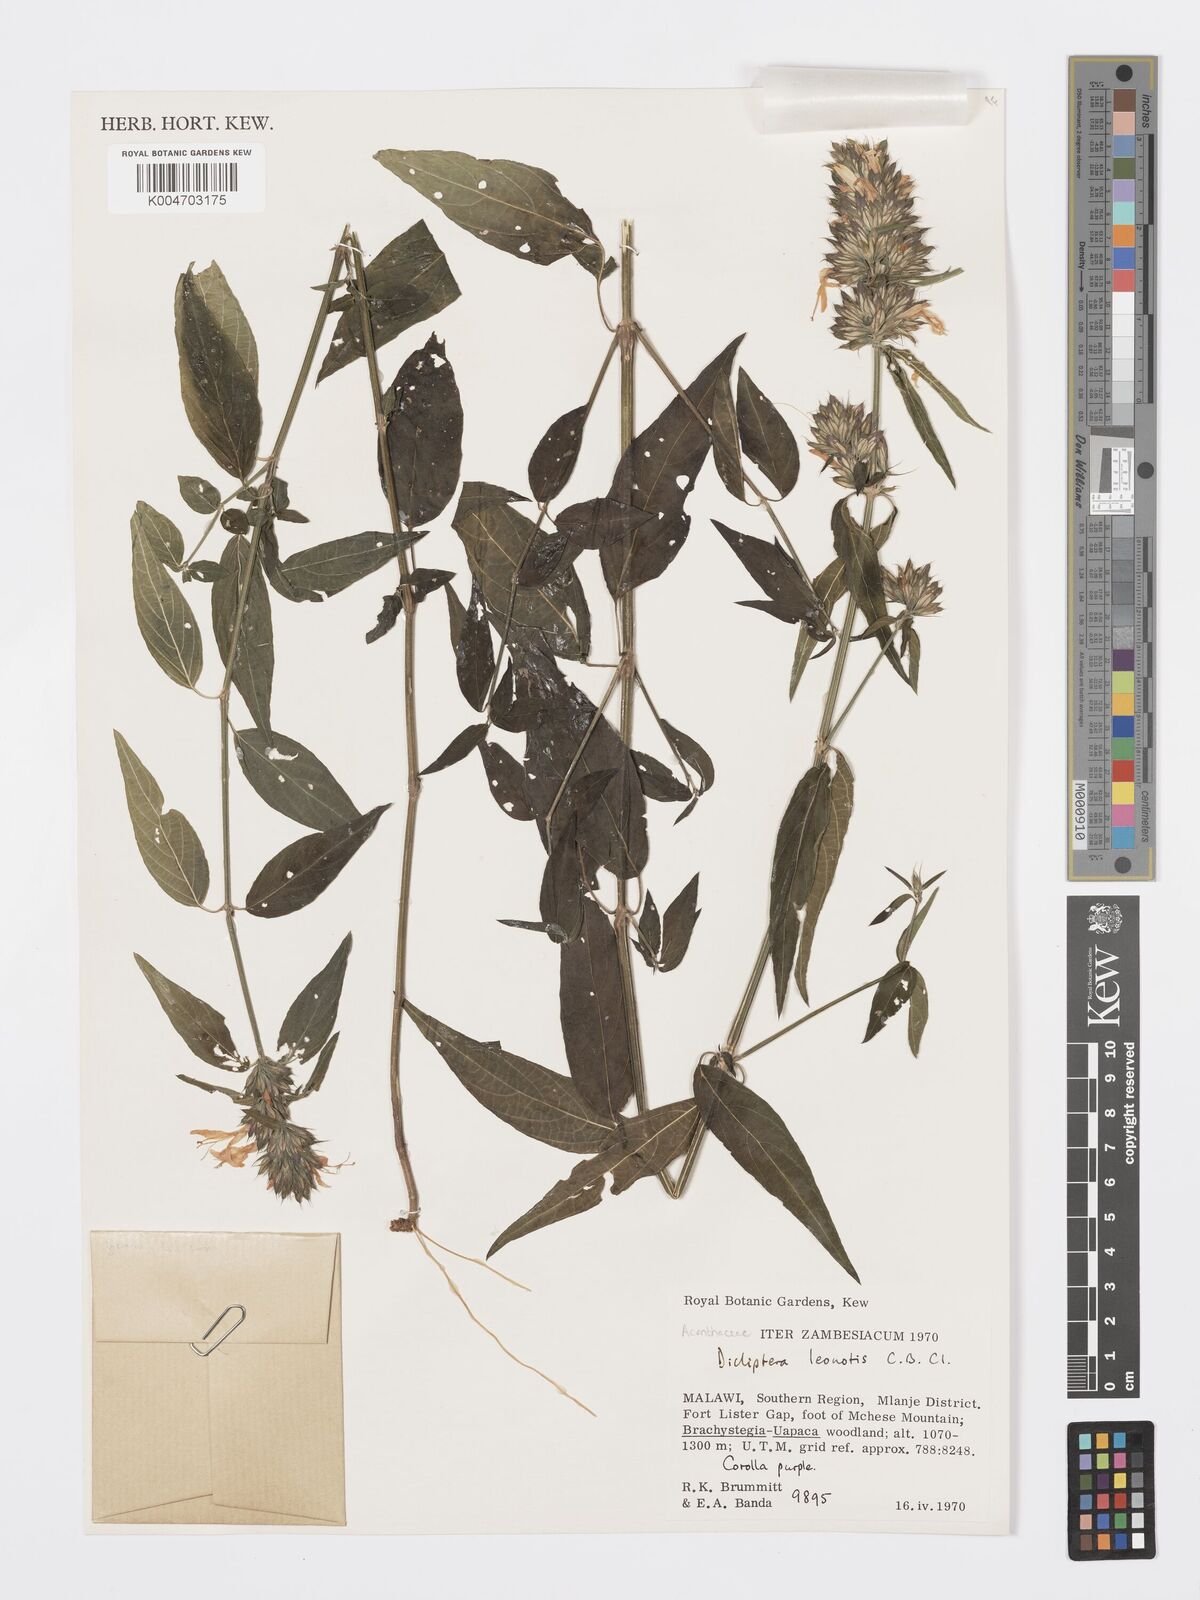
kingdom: Plantae
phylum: Tracheophyta
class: Magnoliopsida
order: Lamiales
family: Acanthaceae
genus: Dicliptera
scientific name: Dicliptera clinopodia
